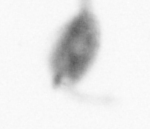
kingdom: Animalia
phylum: Arthropoda
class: Copepoda
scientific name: Copepoda
